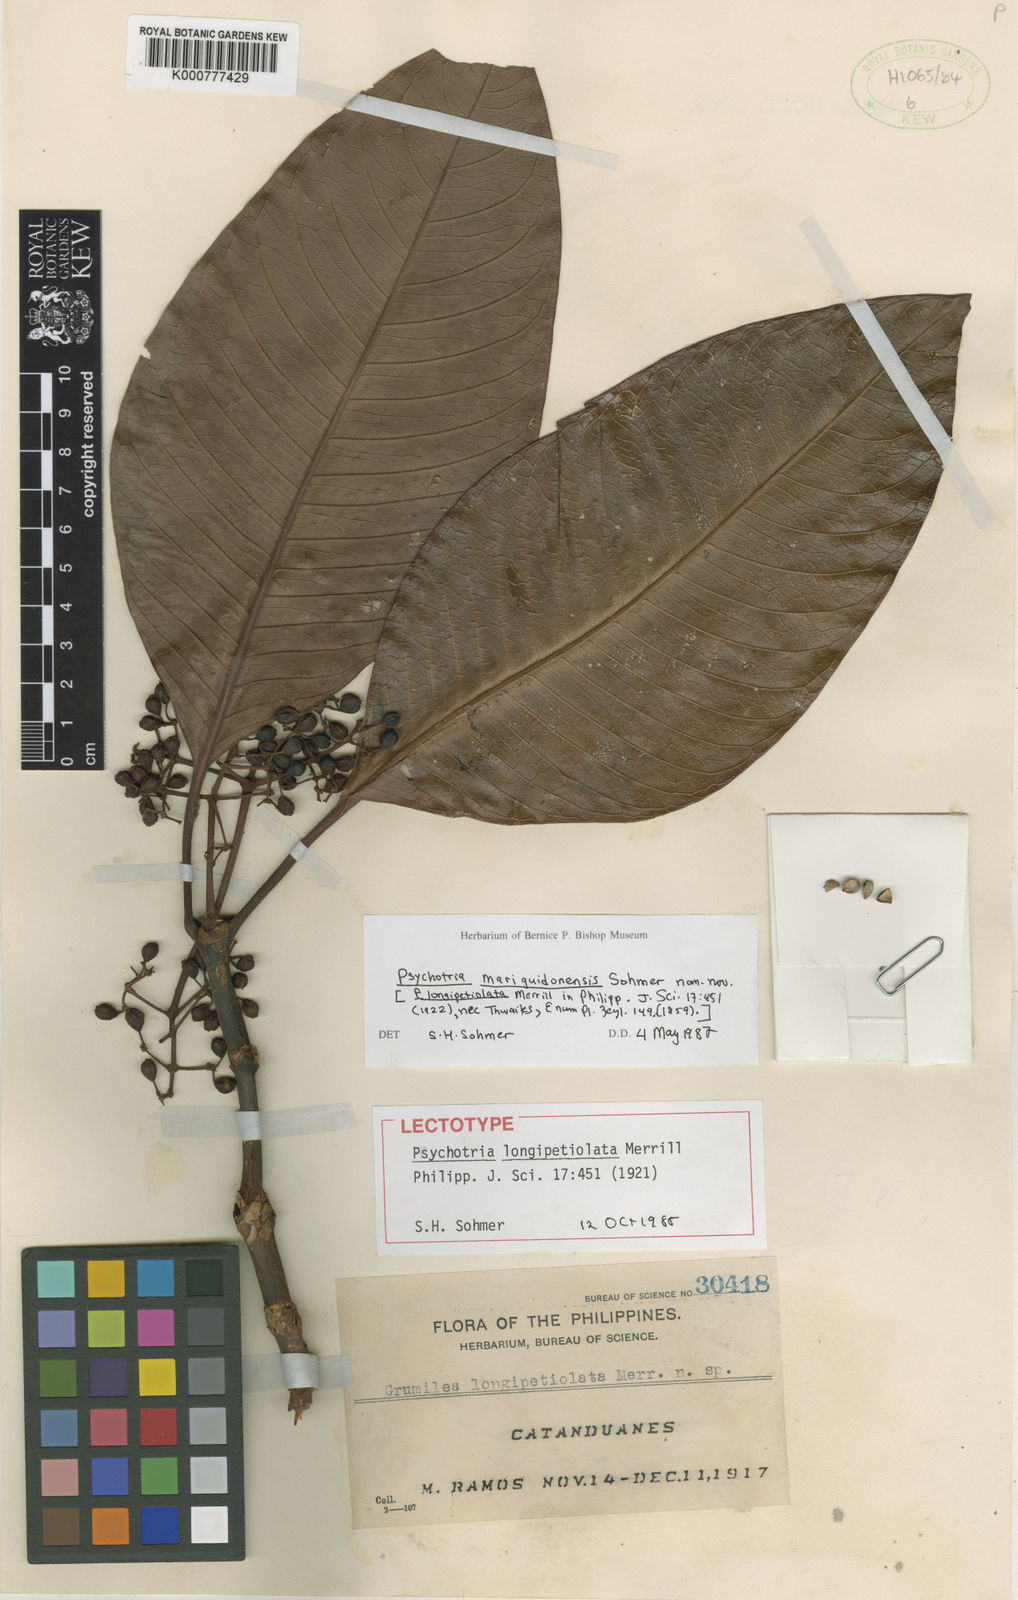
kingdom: Plantae
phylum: Tracheophyta
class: Magnoliopsida
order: Gentianales
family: Rubiaceae
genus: Psychotria
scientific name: Psychotria mariguidonensis
